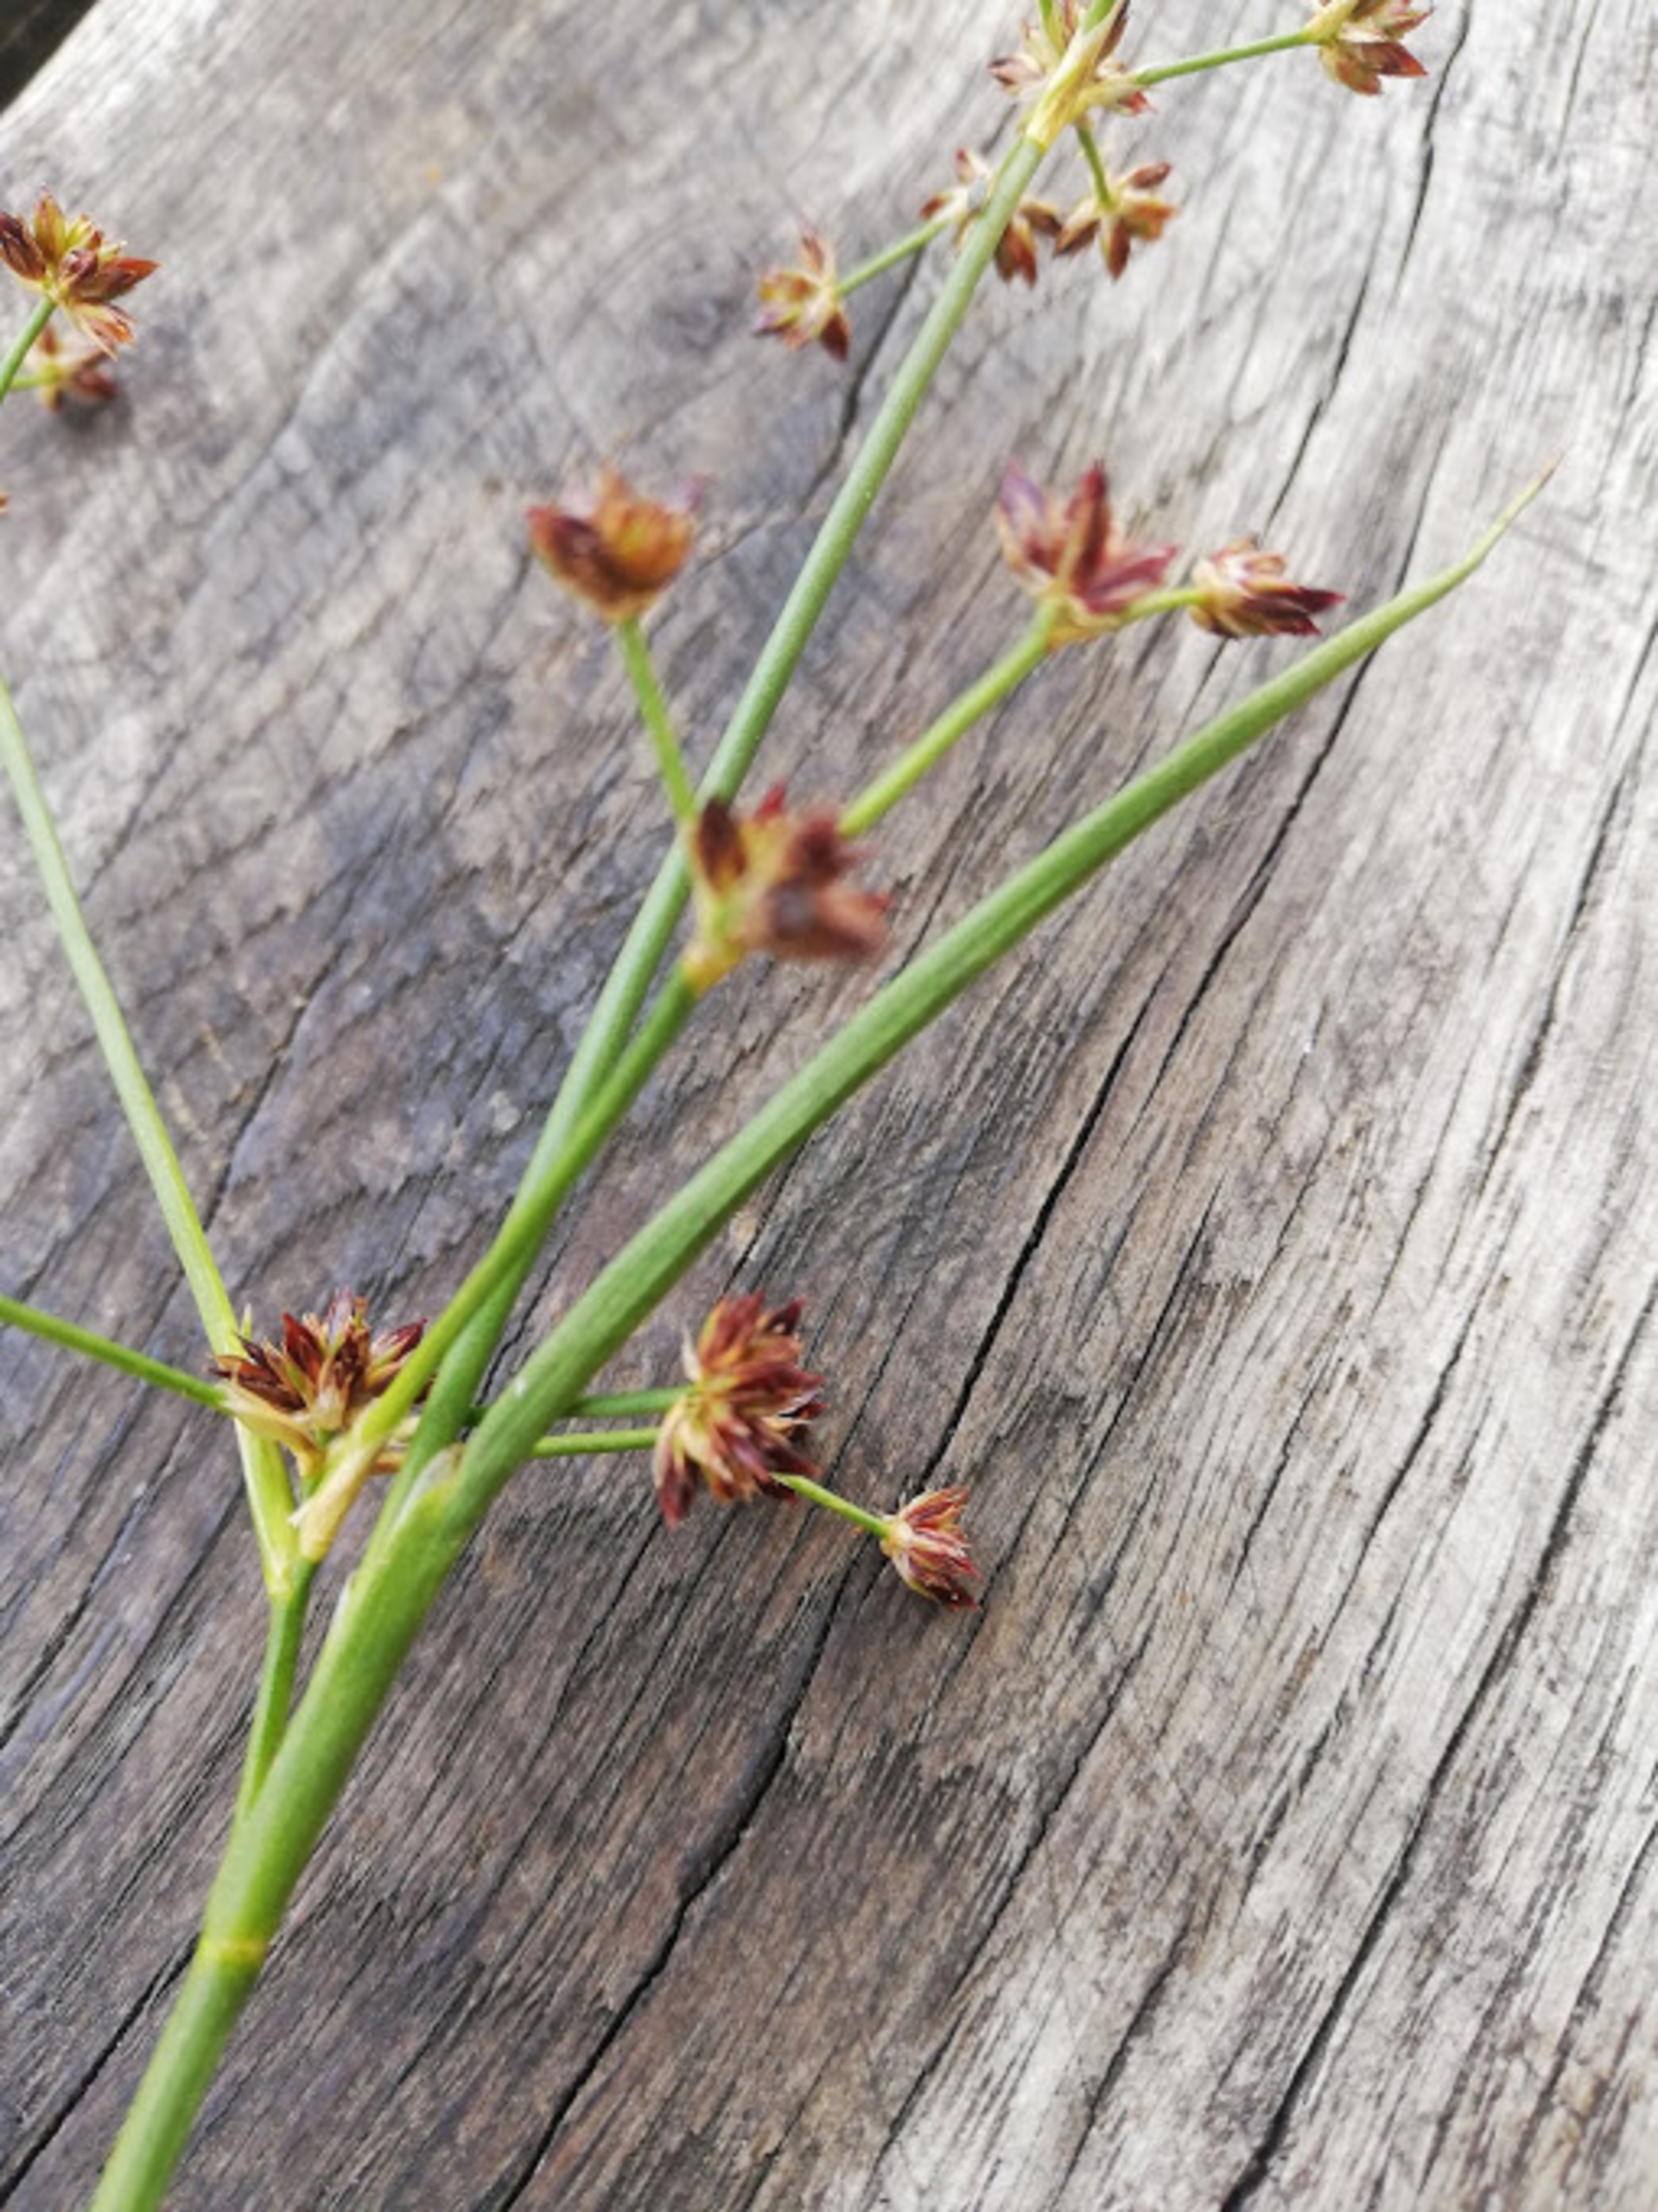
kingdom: Plantae
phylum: Tracheophyta
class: Liliopsida
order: Poales
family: Juncaceae
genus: Juncus
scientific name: Juncus articulatus
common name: Glanskapslet siv
